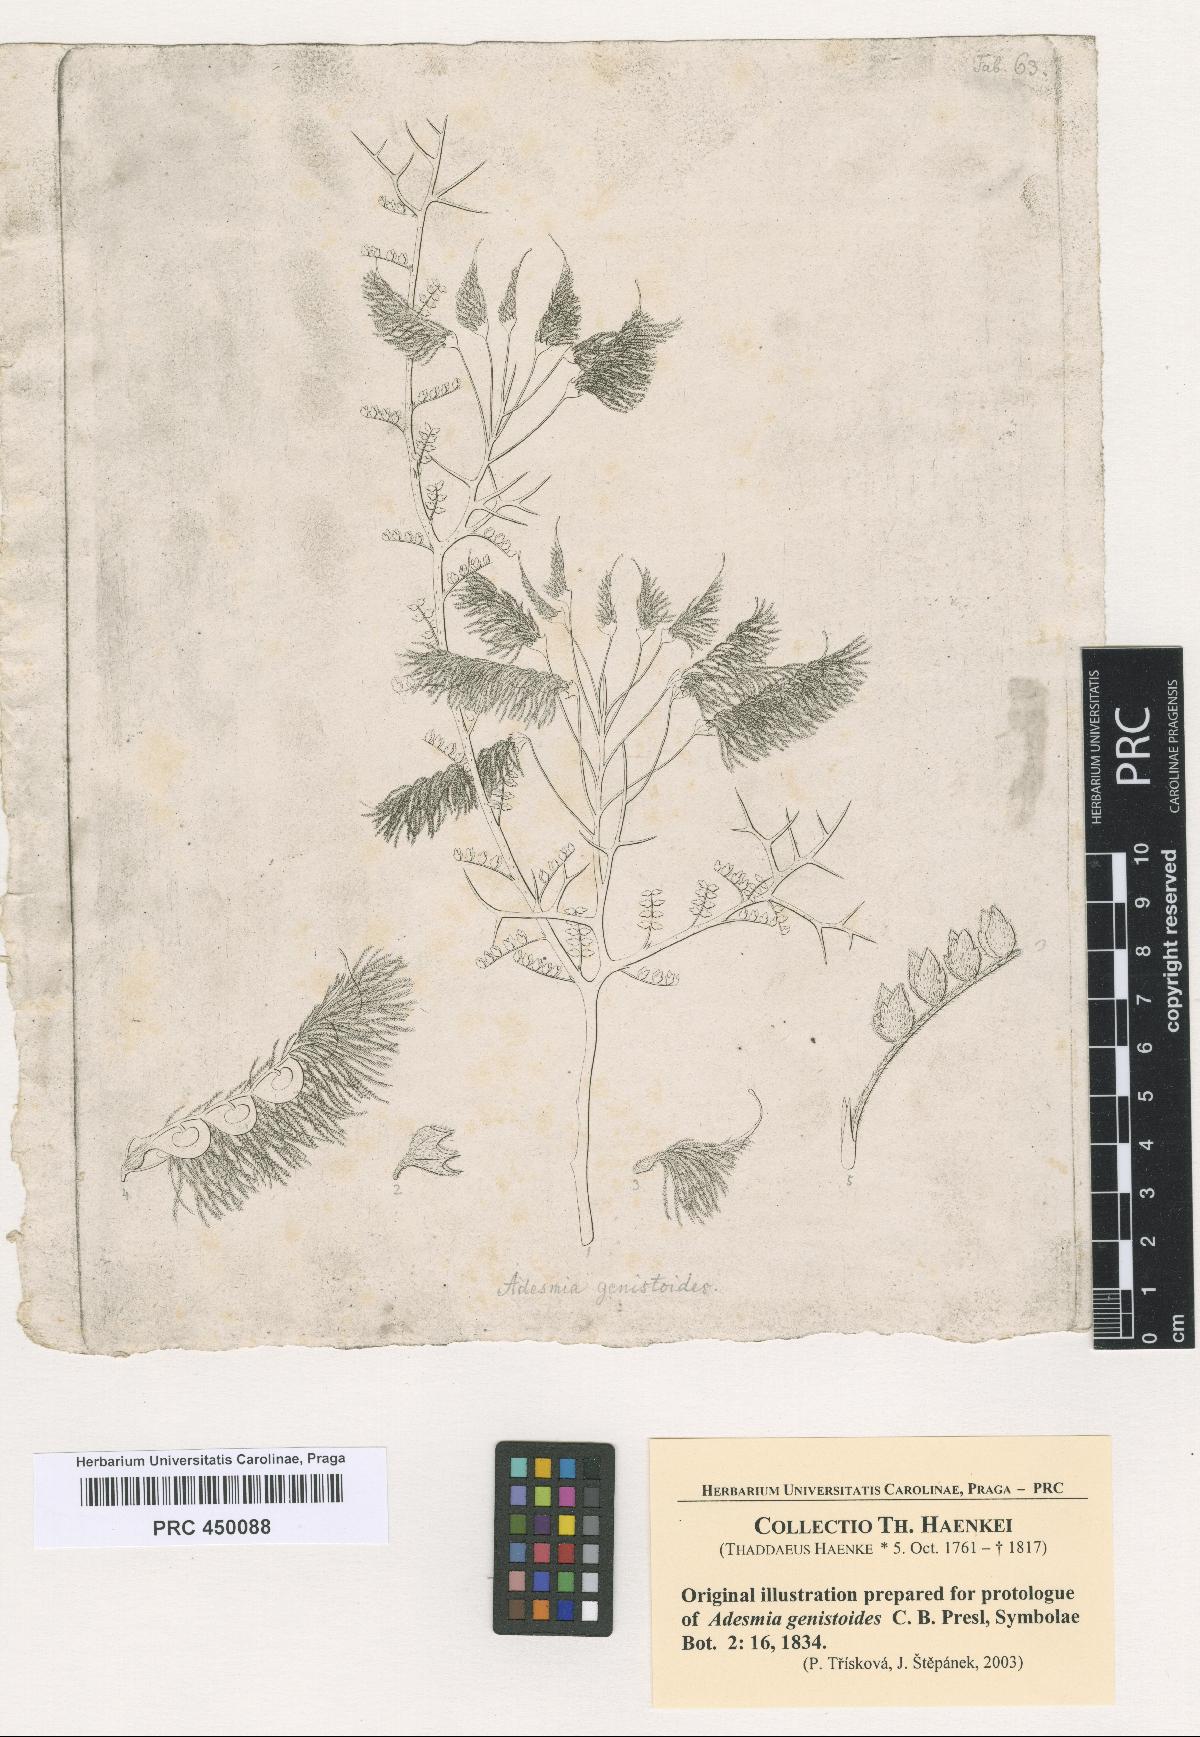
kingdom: Plantae
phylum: Tracheophyta
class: Magnoliopsida
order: Fabales
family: Fabaceae
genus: Adesmia
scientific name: Adesmia pedicellata
